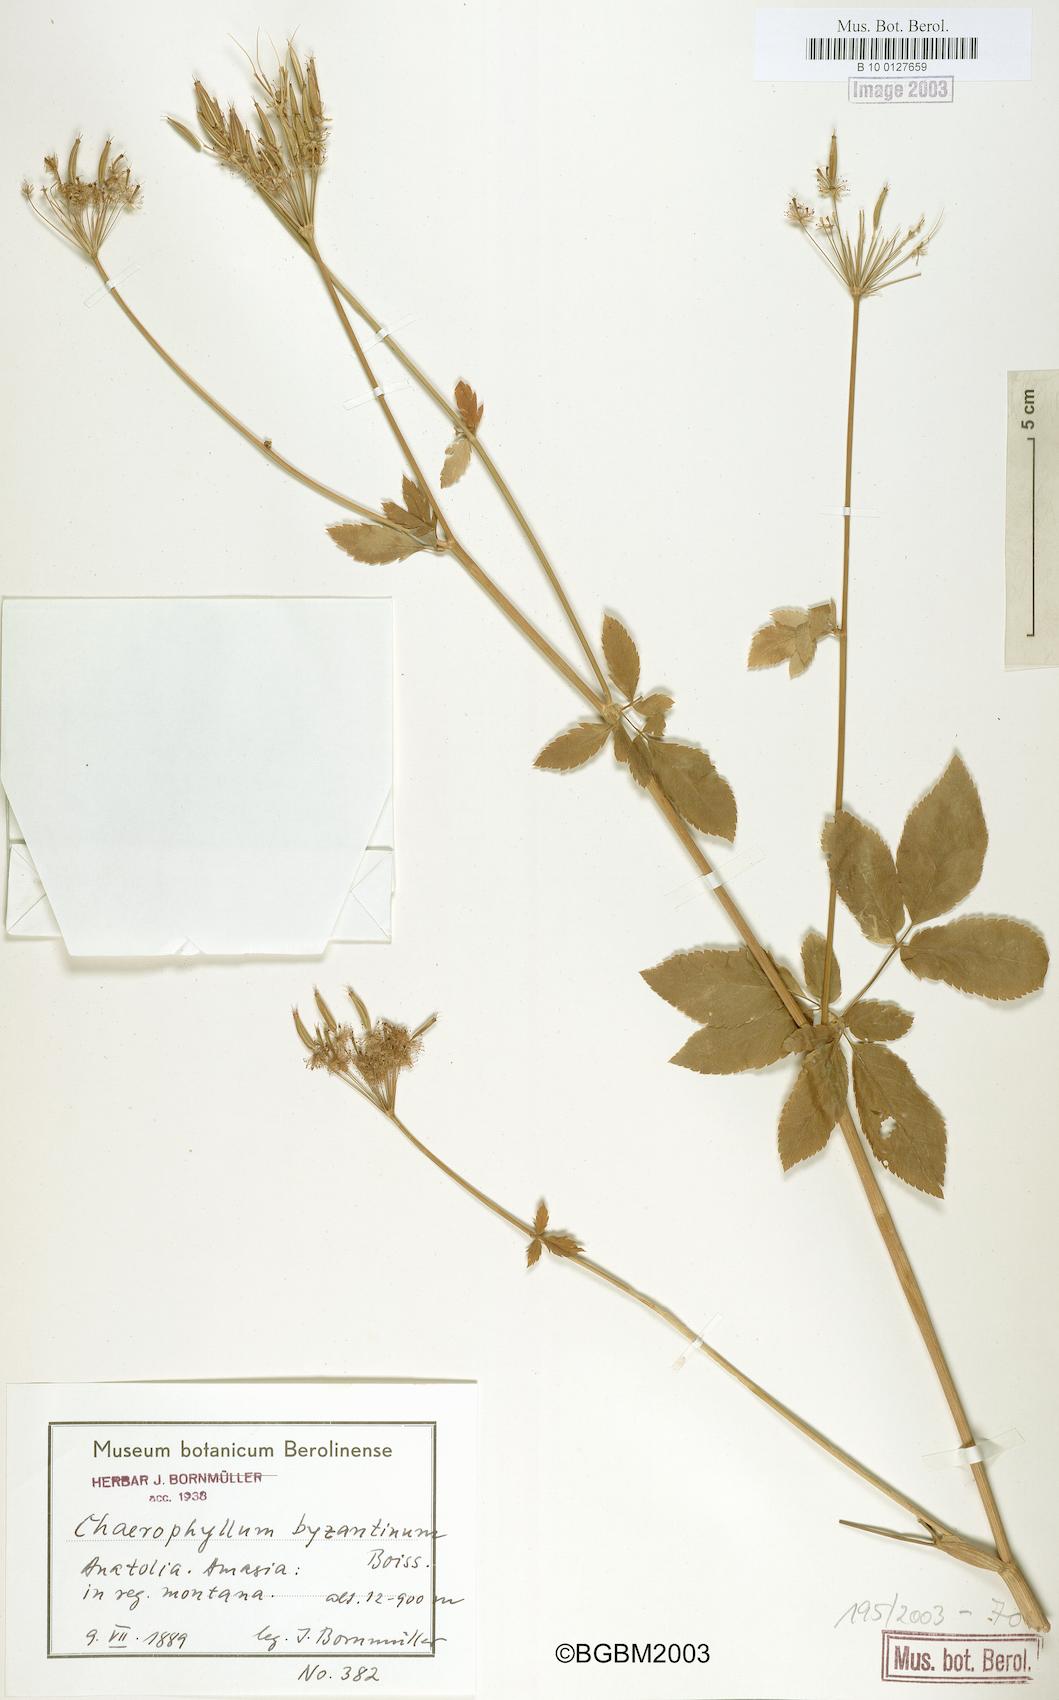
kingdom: Plantae
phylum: Tracheophyta
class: Magnoliopsida
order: Apiales
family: Apiaceae
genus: Chaerophyllum
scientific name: Chaerophyllum byzantinum
